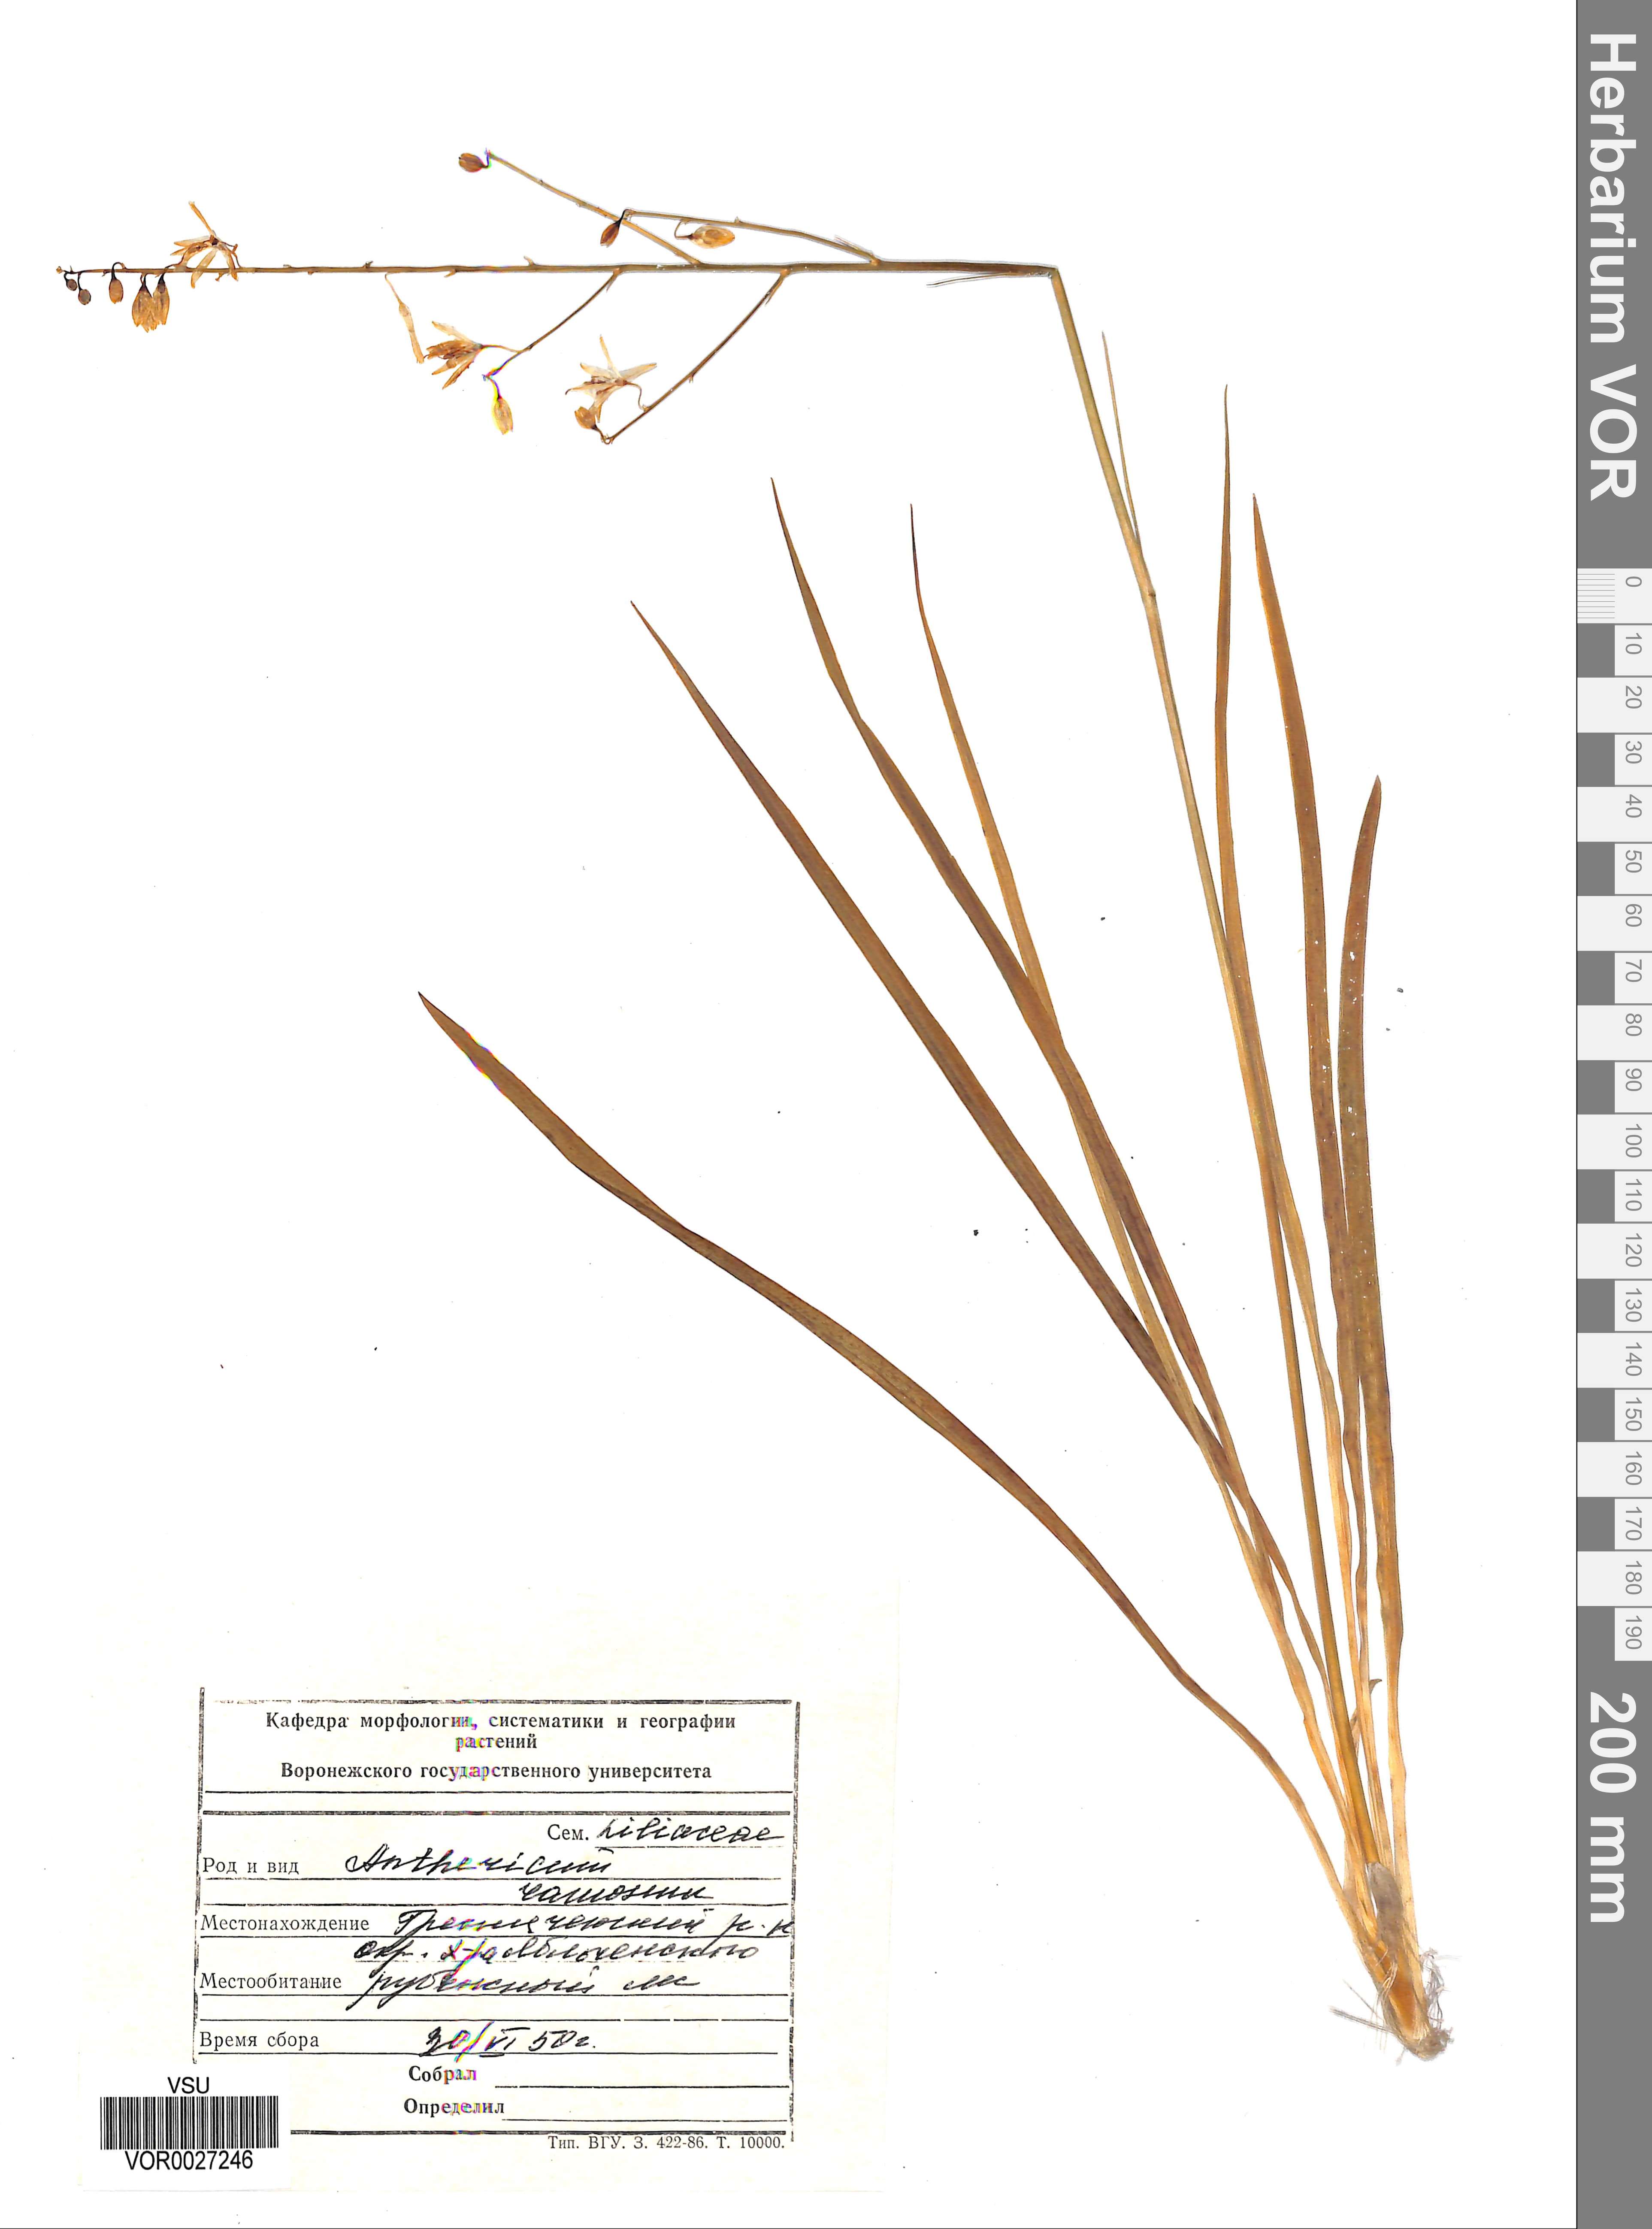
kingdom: Plantae
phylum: Tracheophyta
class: Liliopsida
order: Asparagales
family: Asparagaceae
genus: Anthericum
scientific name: Anthericum ramosum
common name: Branched st. bernard's-lily
